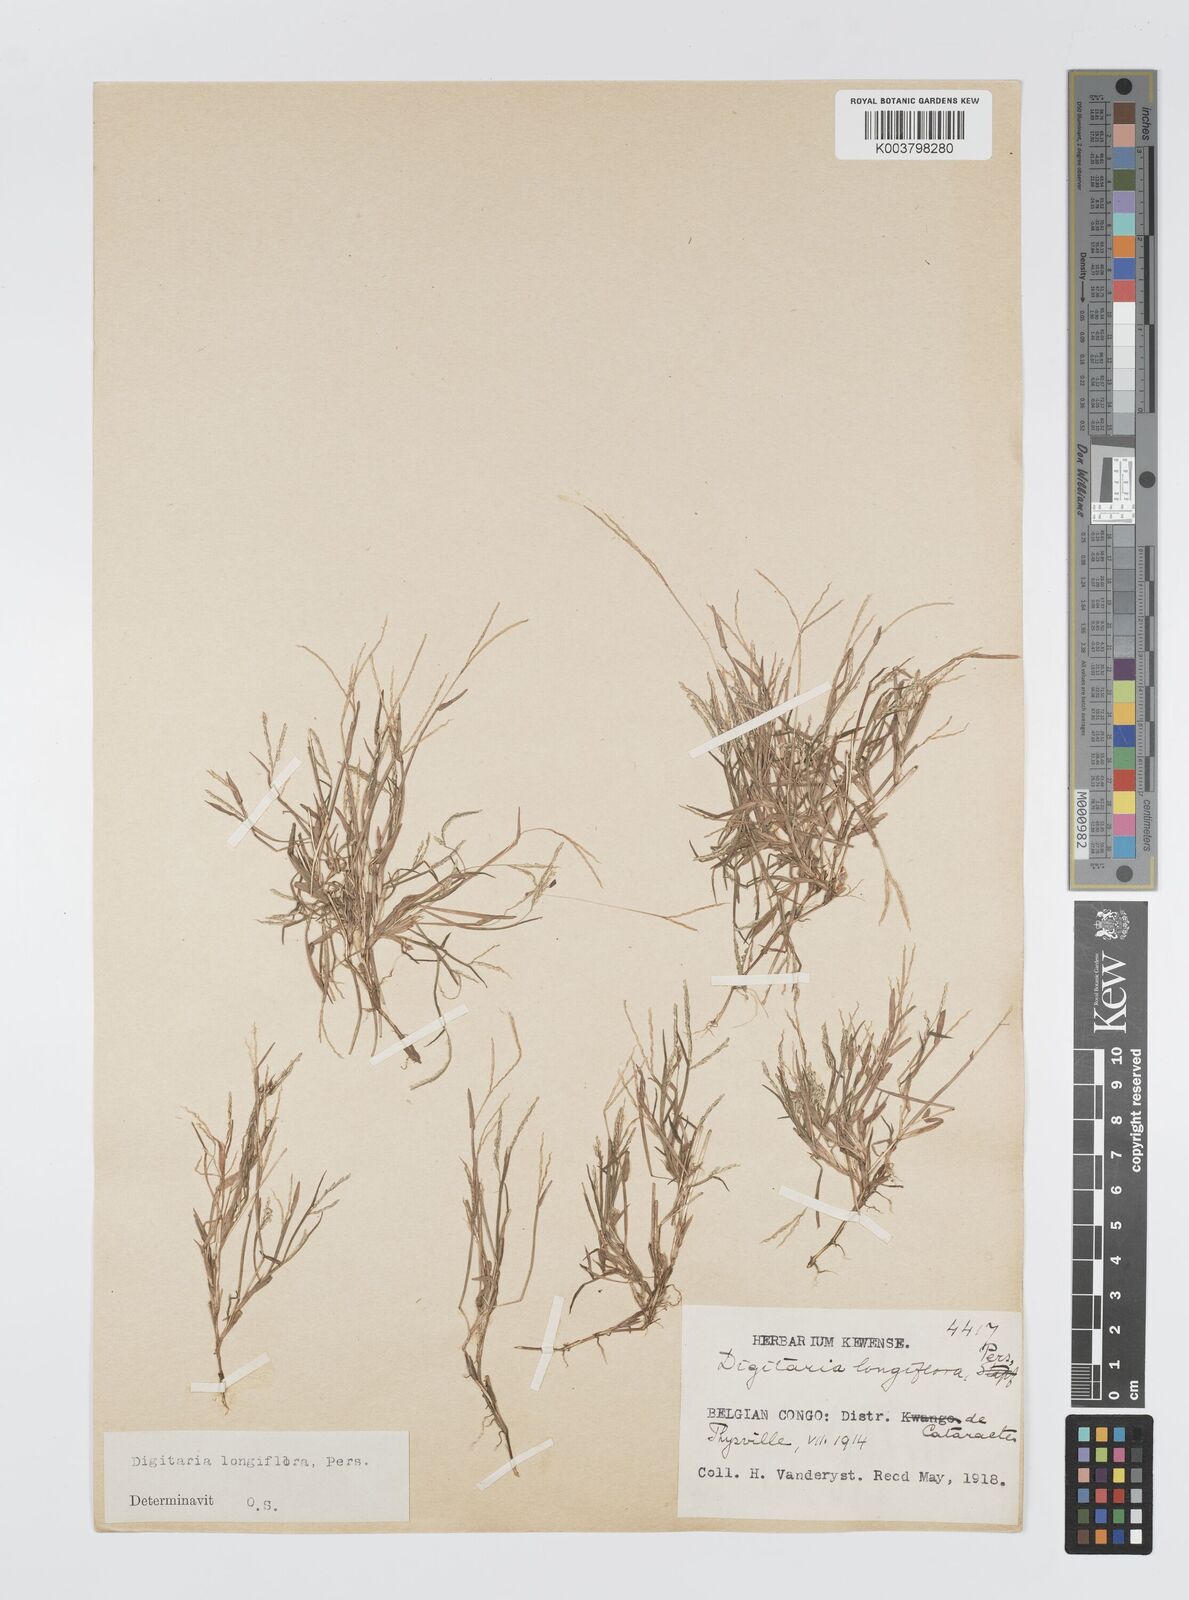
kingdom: Plantae
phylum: Tracheophyta
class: Liliopsida
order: Poales
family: Poaceae
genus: Digitaria
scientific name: Digitaria longiflora
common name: Wire crabgrass
